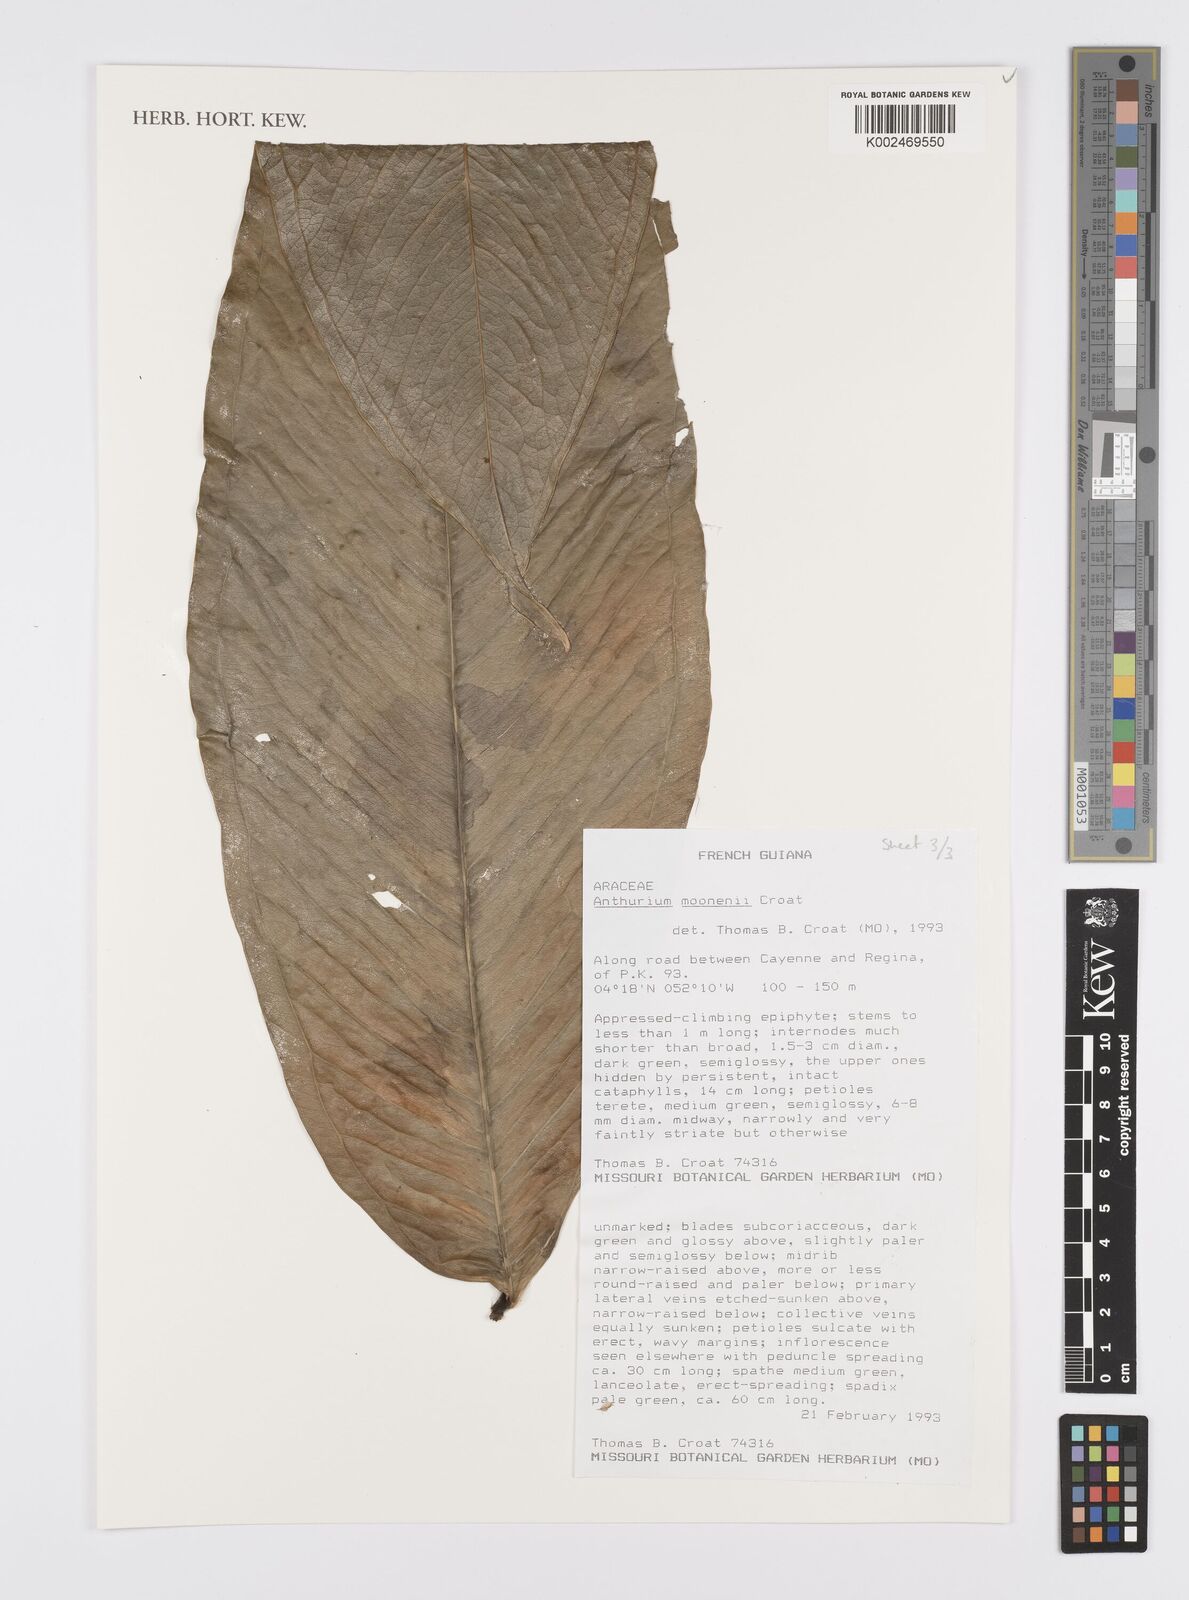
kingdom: Plantae
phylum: Tracheophyta
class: Liliopsida
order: Alismatales
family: Araceae
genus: Anthurium
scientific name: Anthurium moonenii
